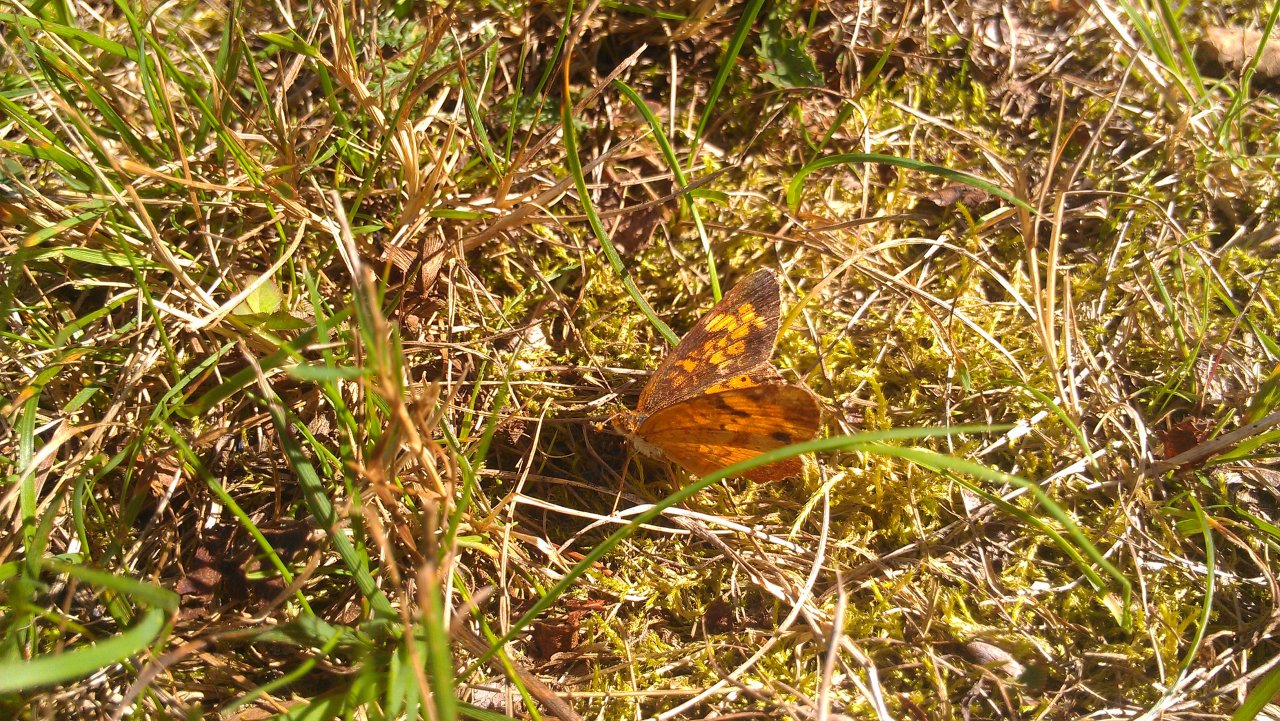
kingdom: Animalia
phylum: Arthropoda
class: Insecta
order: Lepidoptera
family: Nymphalidae
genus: Phyciodes
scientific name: Phyciodes tharos
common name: Northern Crescent
